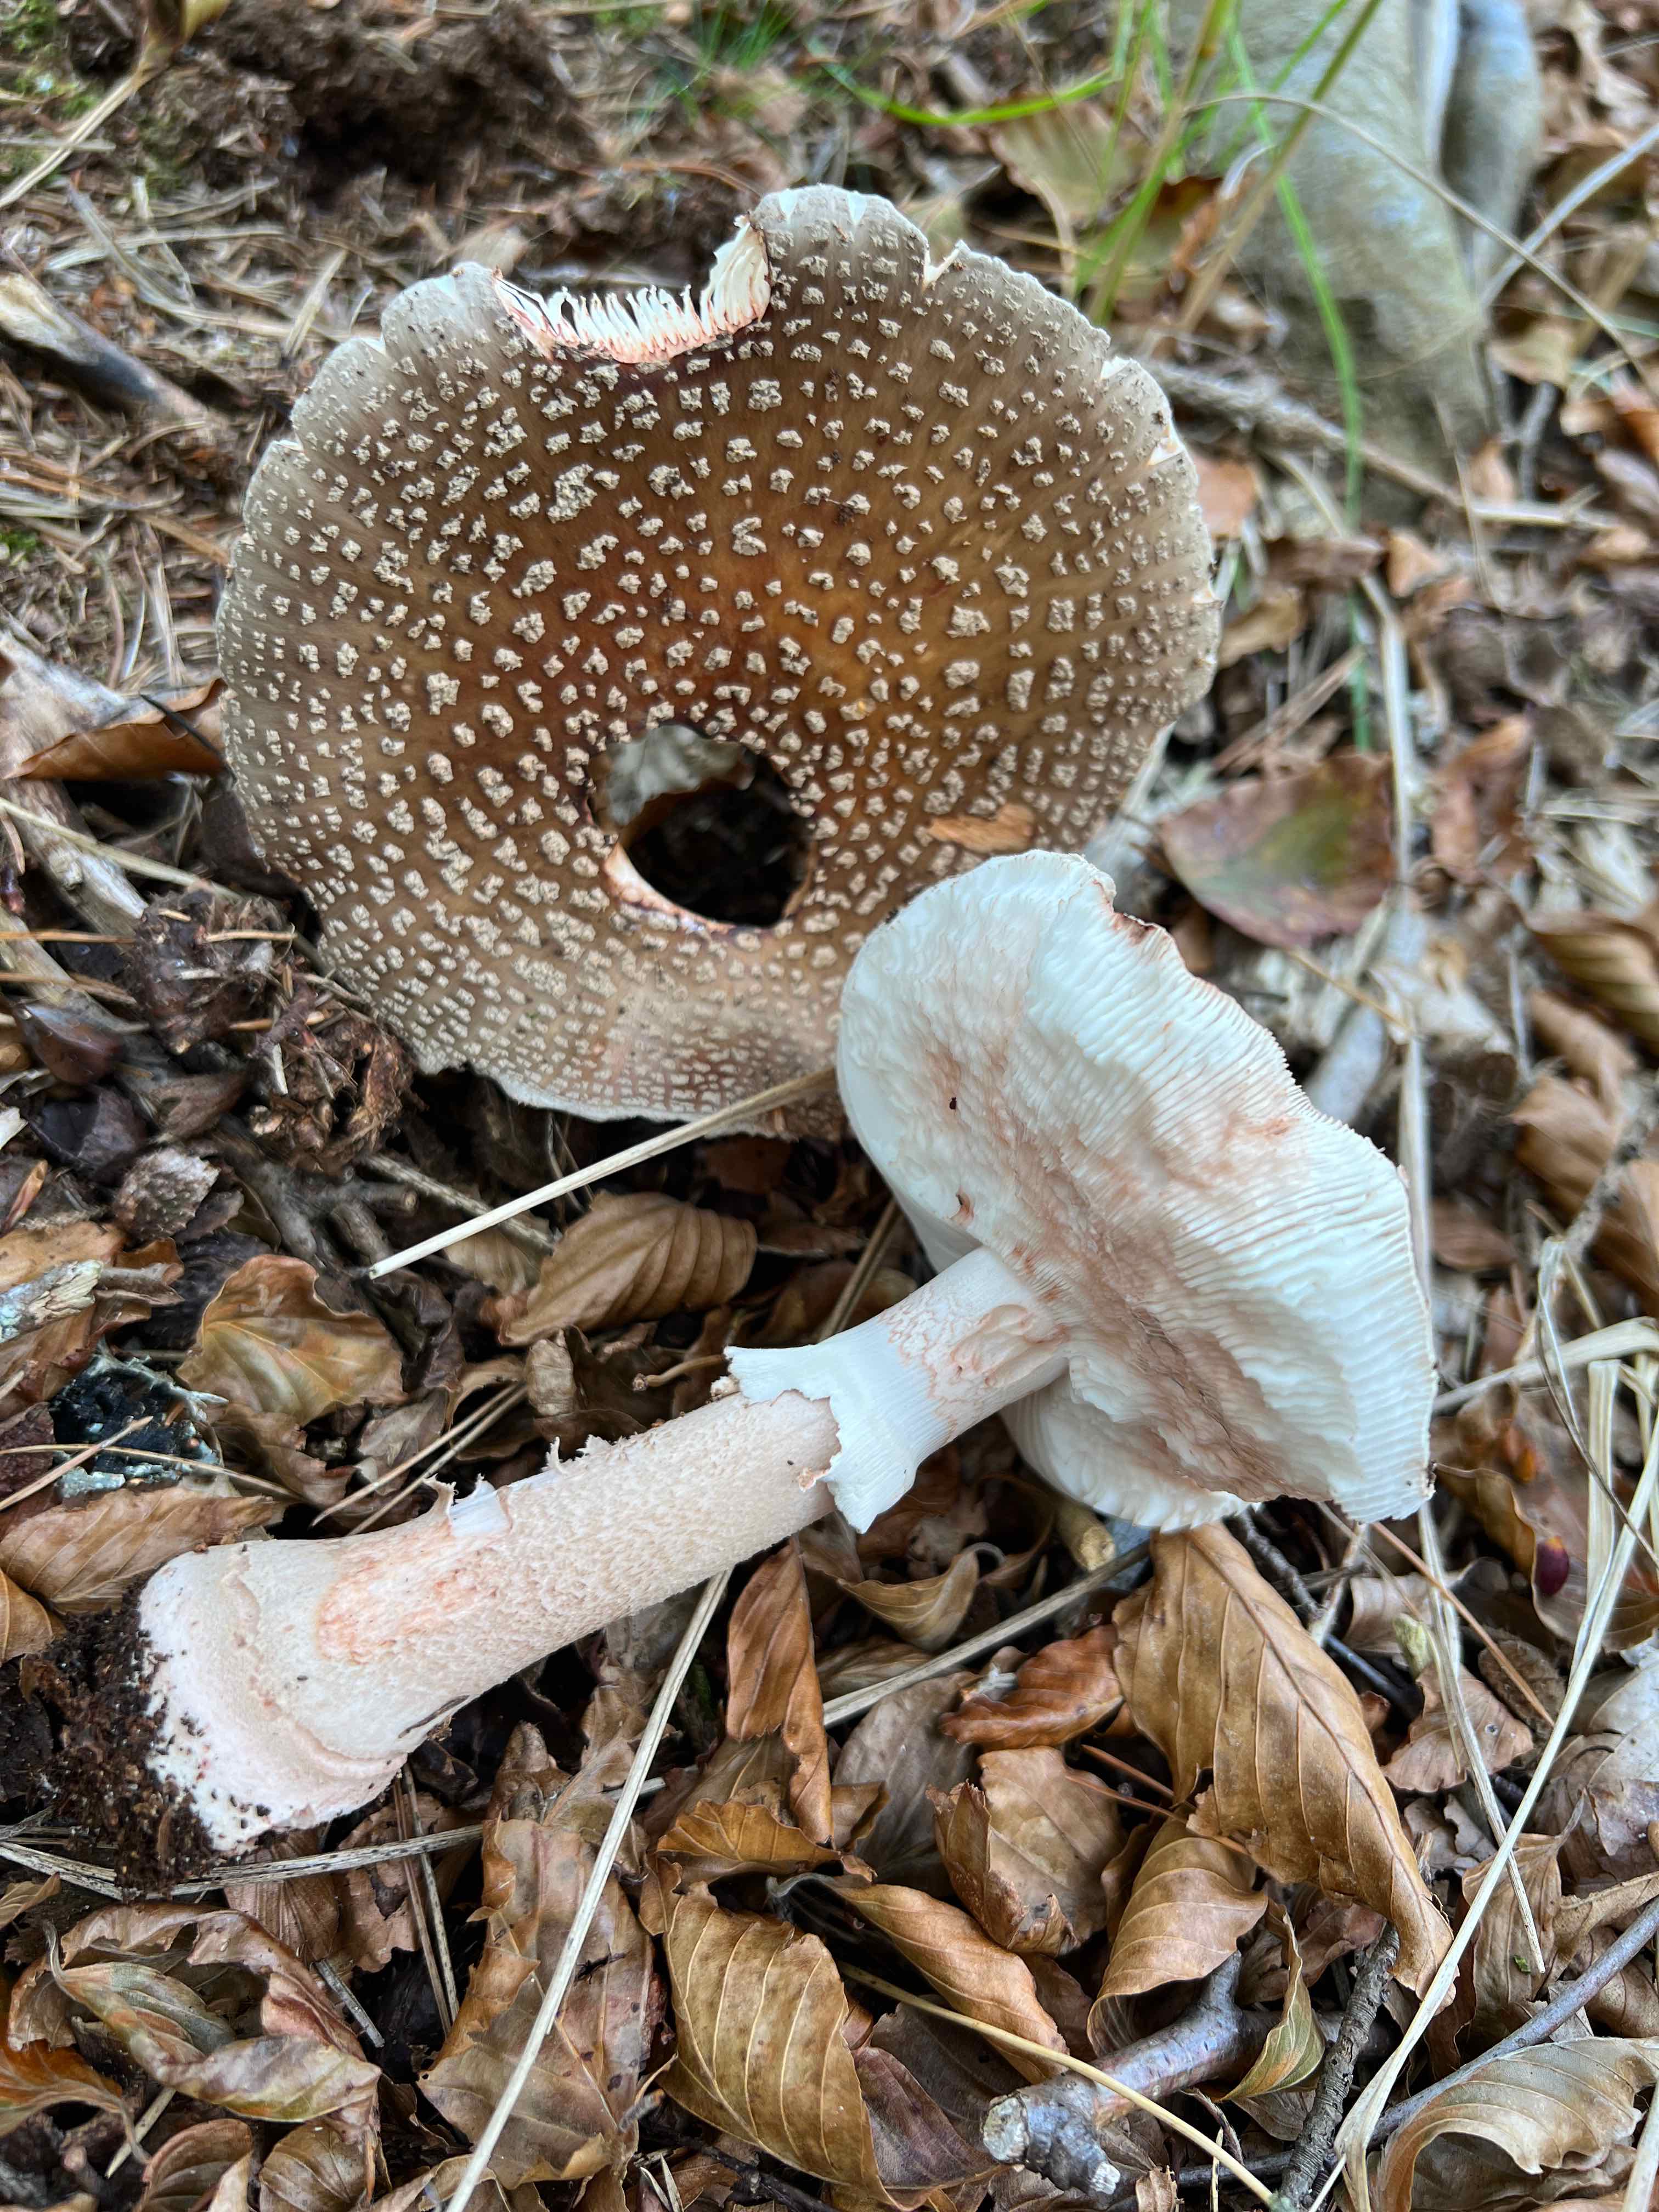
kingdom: Fungi
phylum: Basidiomycota
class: Agaricomycetes
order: Agaricales
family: Amanitaceae
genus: Amanita
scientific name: Amanita rubescens
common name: rødmende fluesvamp
